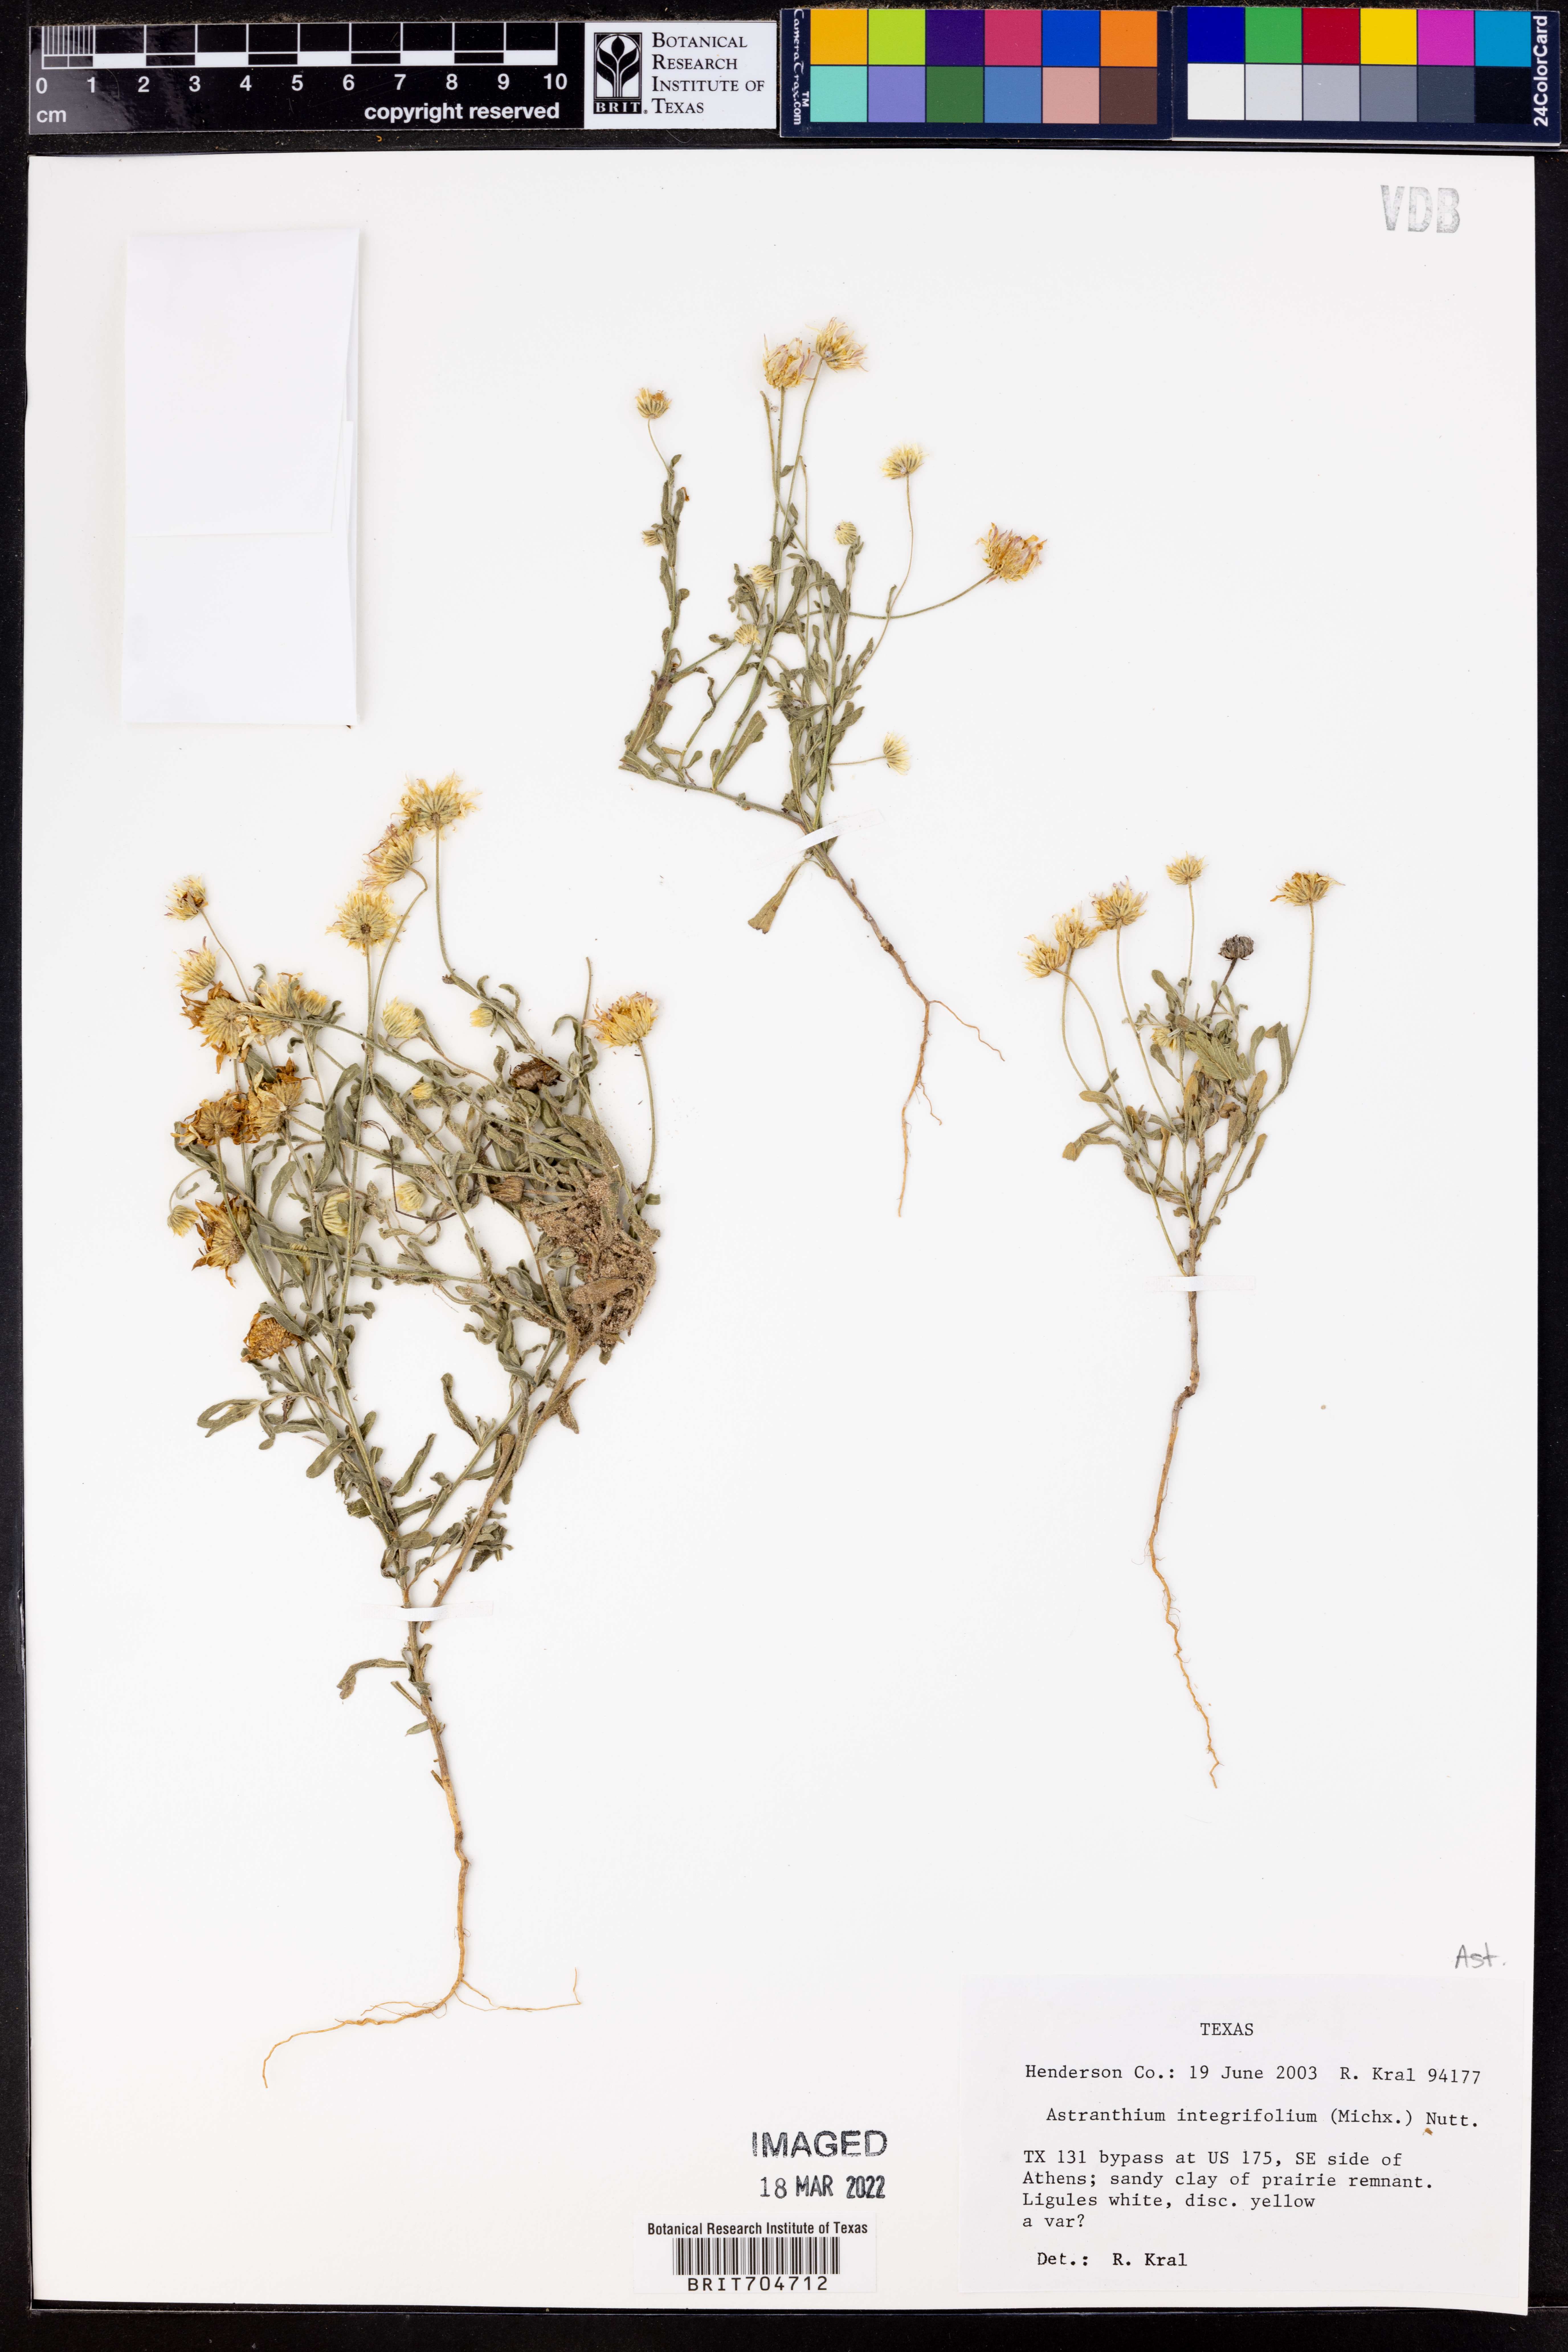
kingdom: Plantae
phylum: Tracheophyta
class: Magnoliopsida
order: Asterales
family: Asteraceae
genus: Astranthium
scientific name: Astranthium integrifolium
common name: Western daisy
